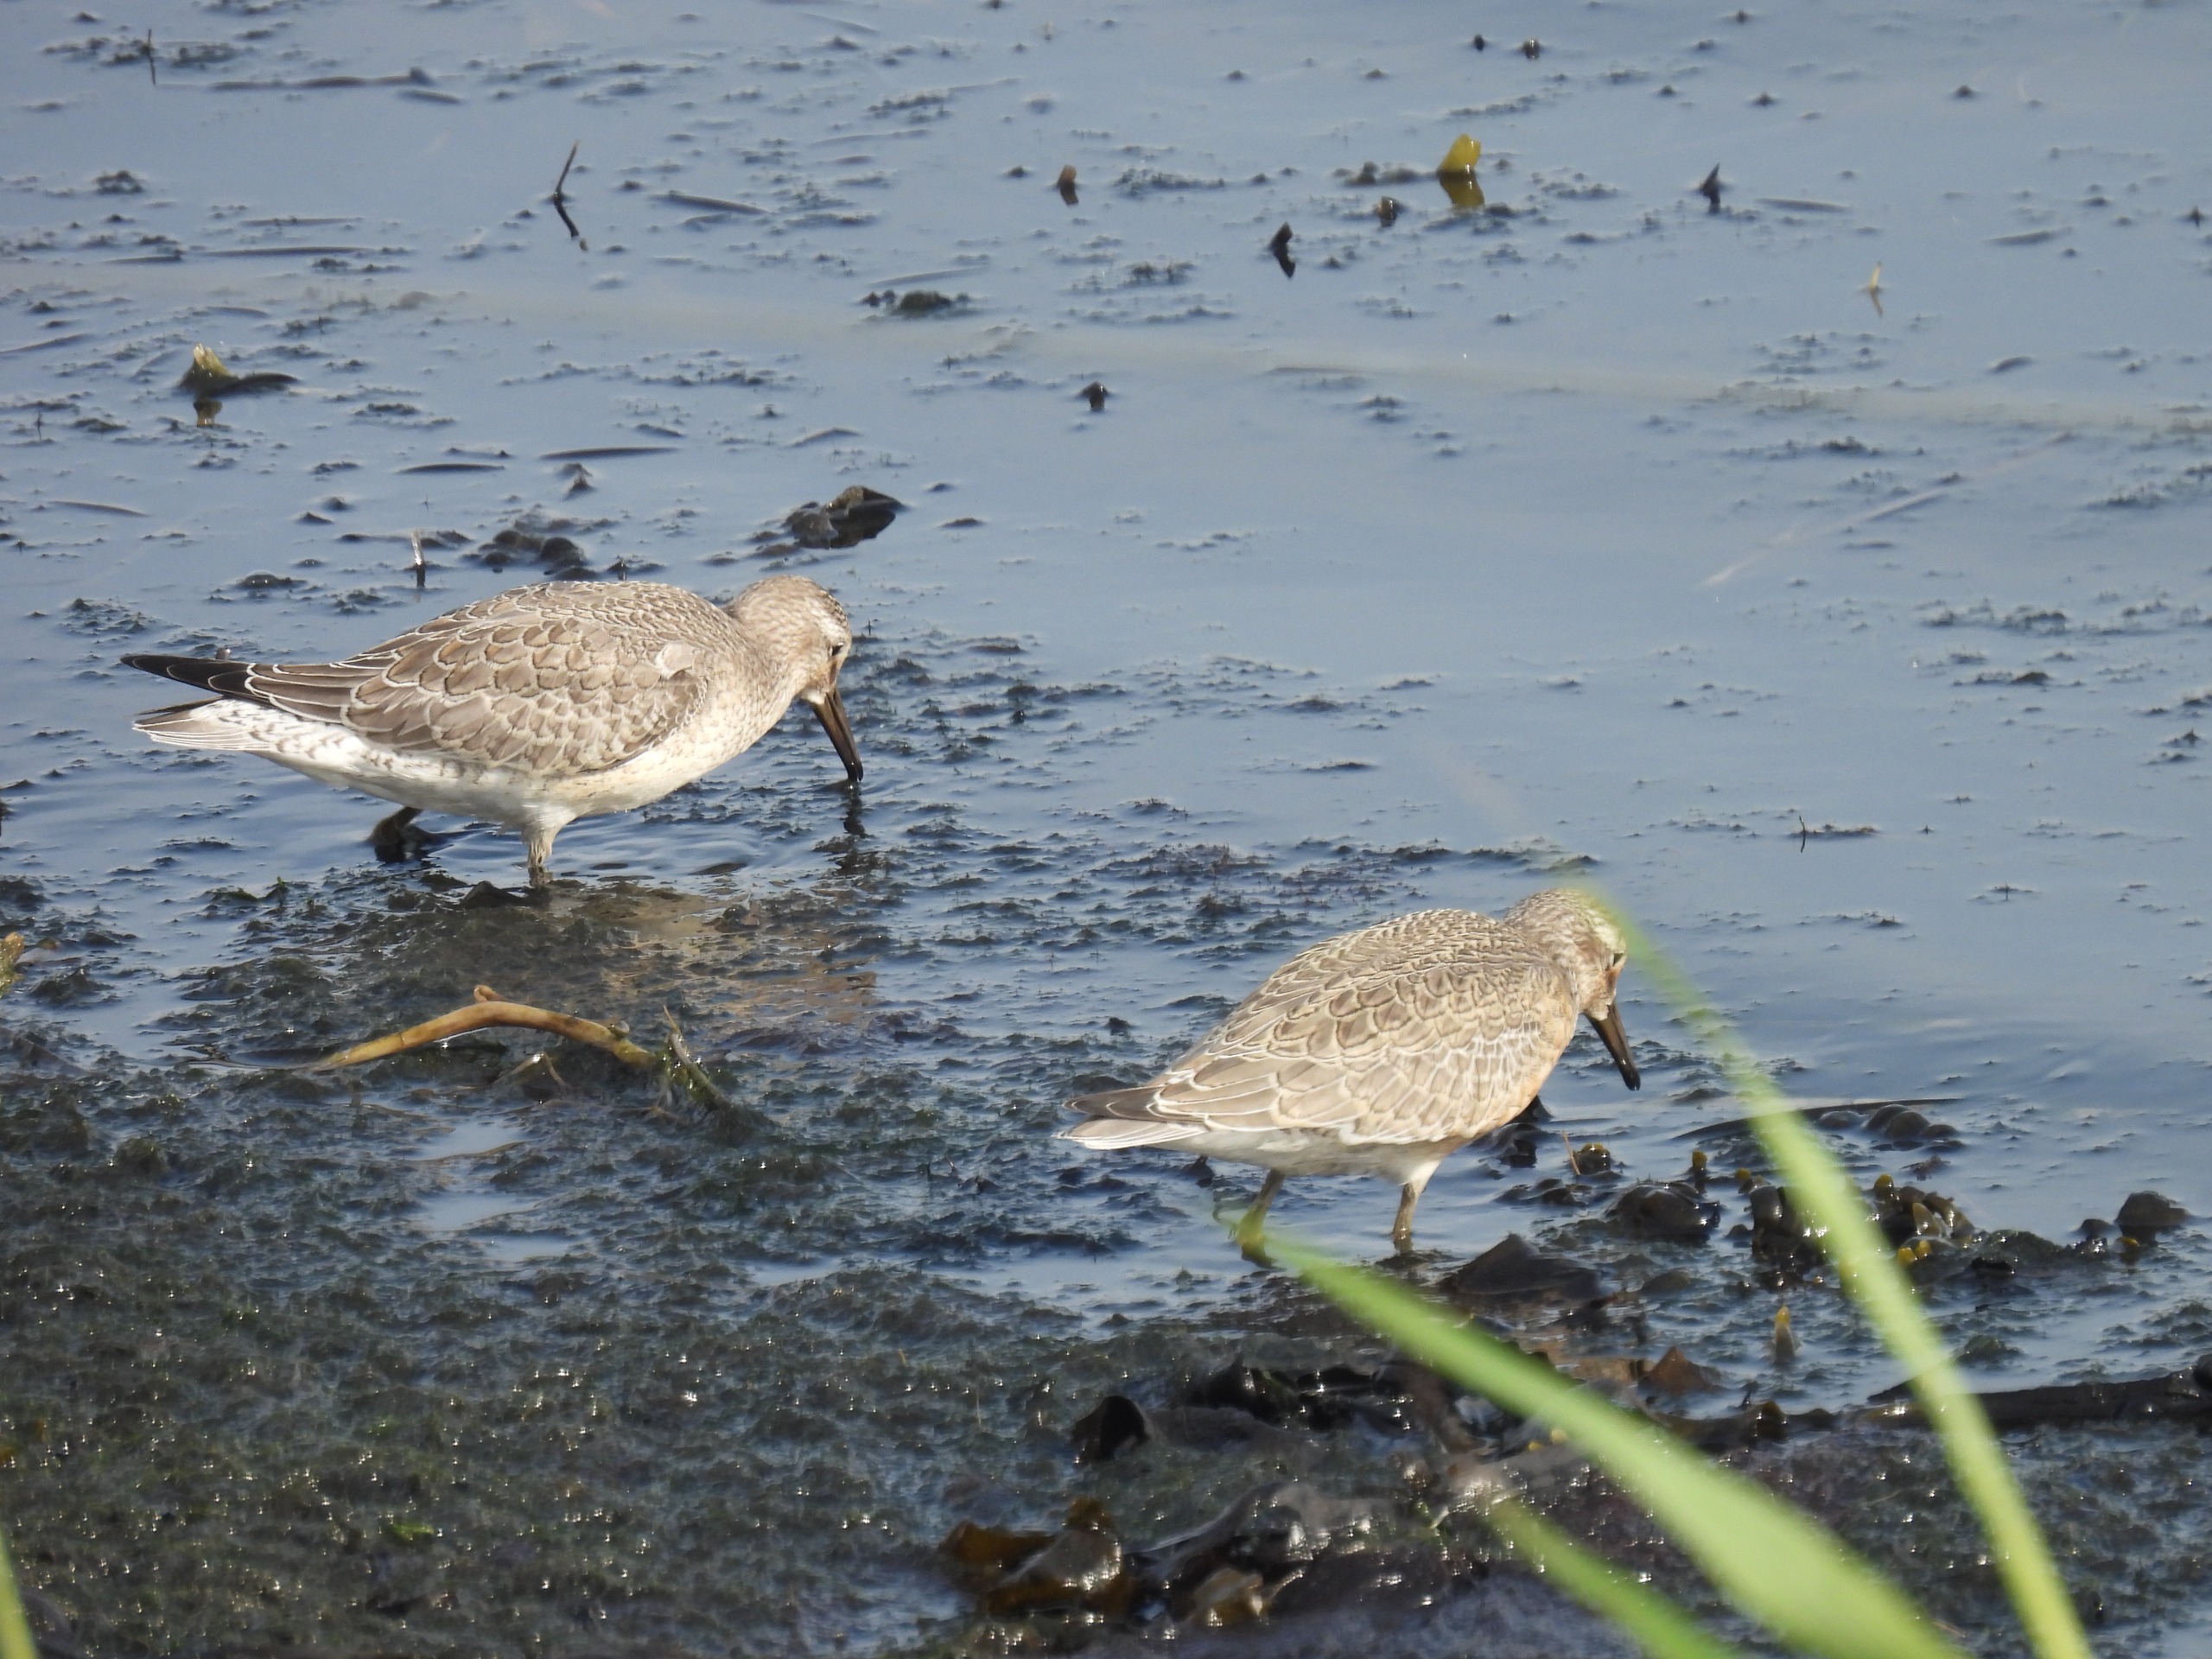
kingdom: Animalia
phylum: Chordata
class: Aves
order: Charadriiformes
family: Scolopacidae
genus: Calidris
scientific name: Calidris canutus
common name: Islandsk ryle
